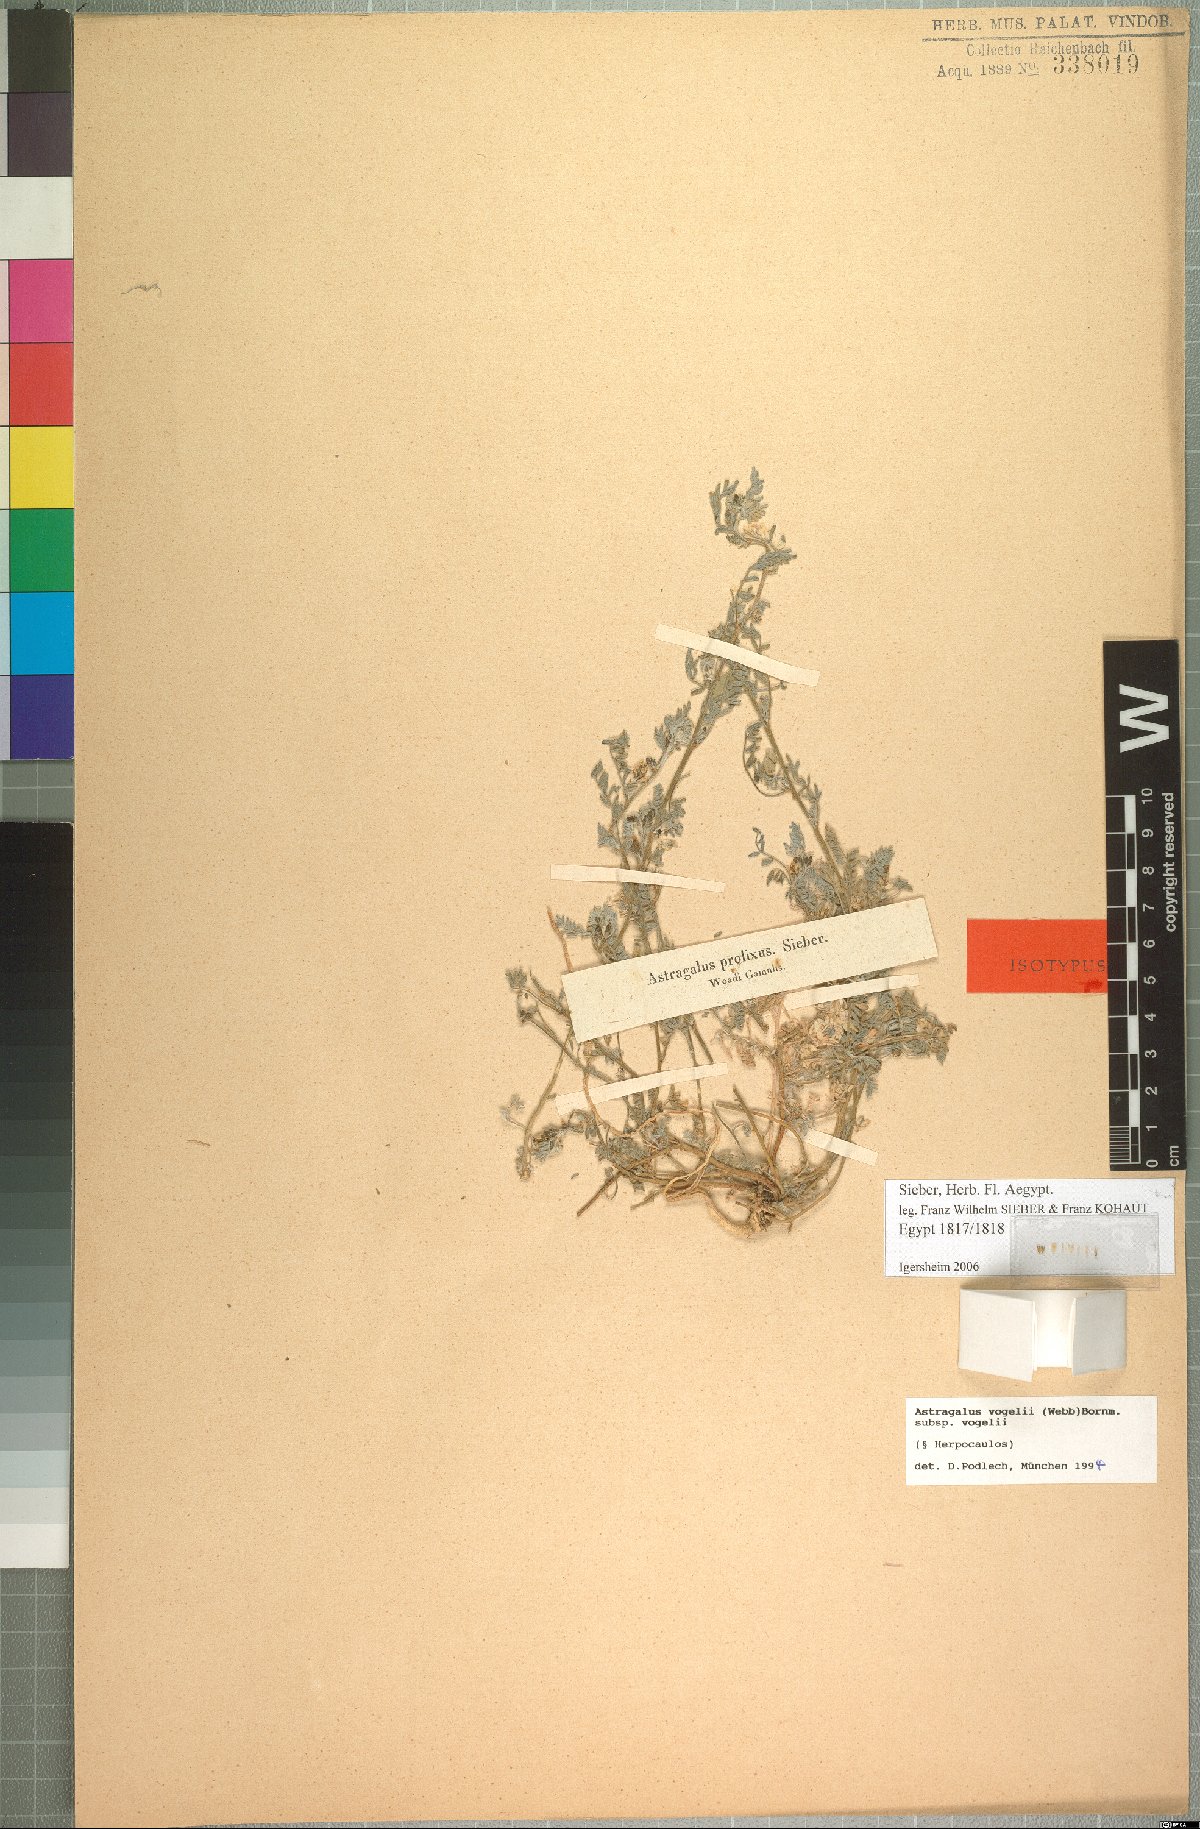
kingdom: Plantae
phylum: Tracheophyta
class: Magnoliopsida
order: Fabales
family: Fabaceae
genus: Astragalus
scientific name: Astragalus vogelii
